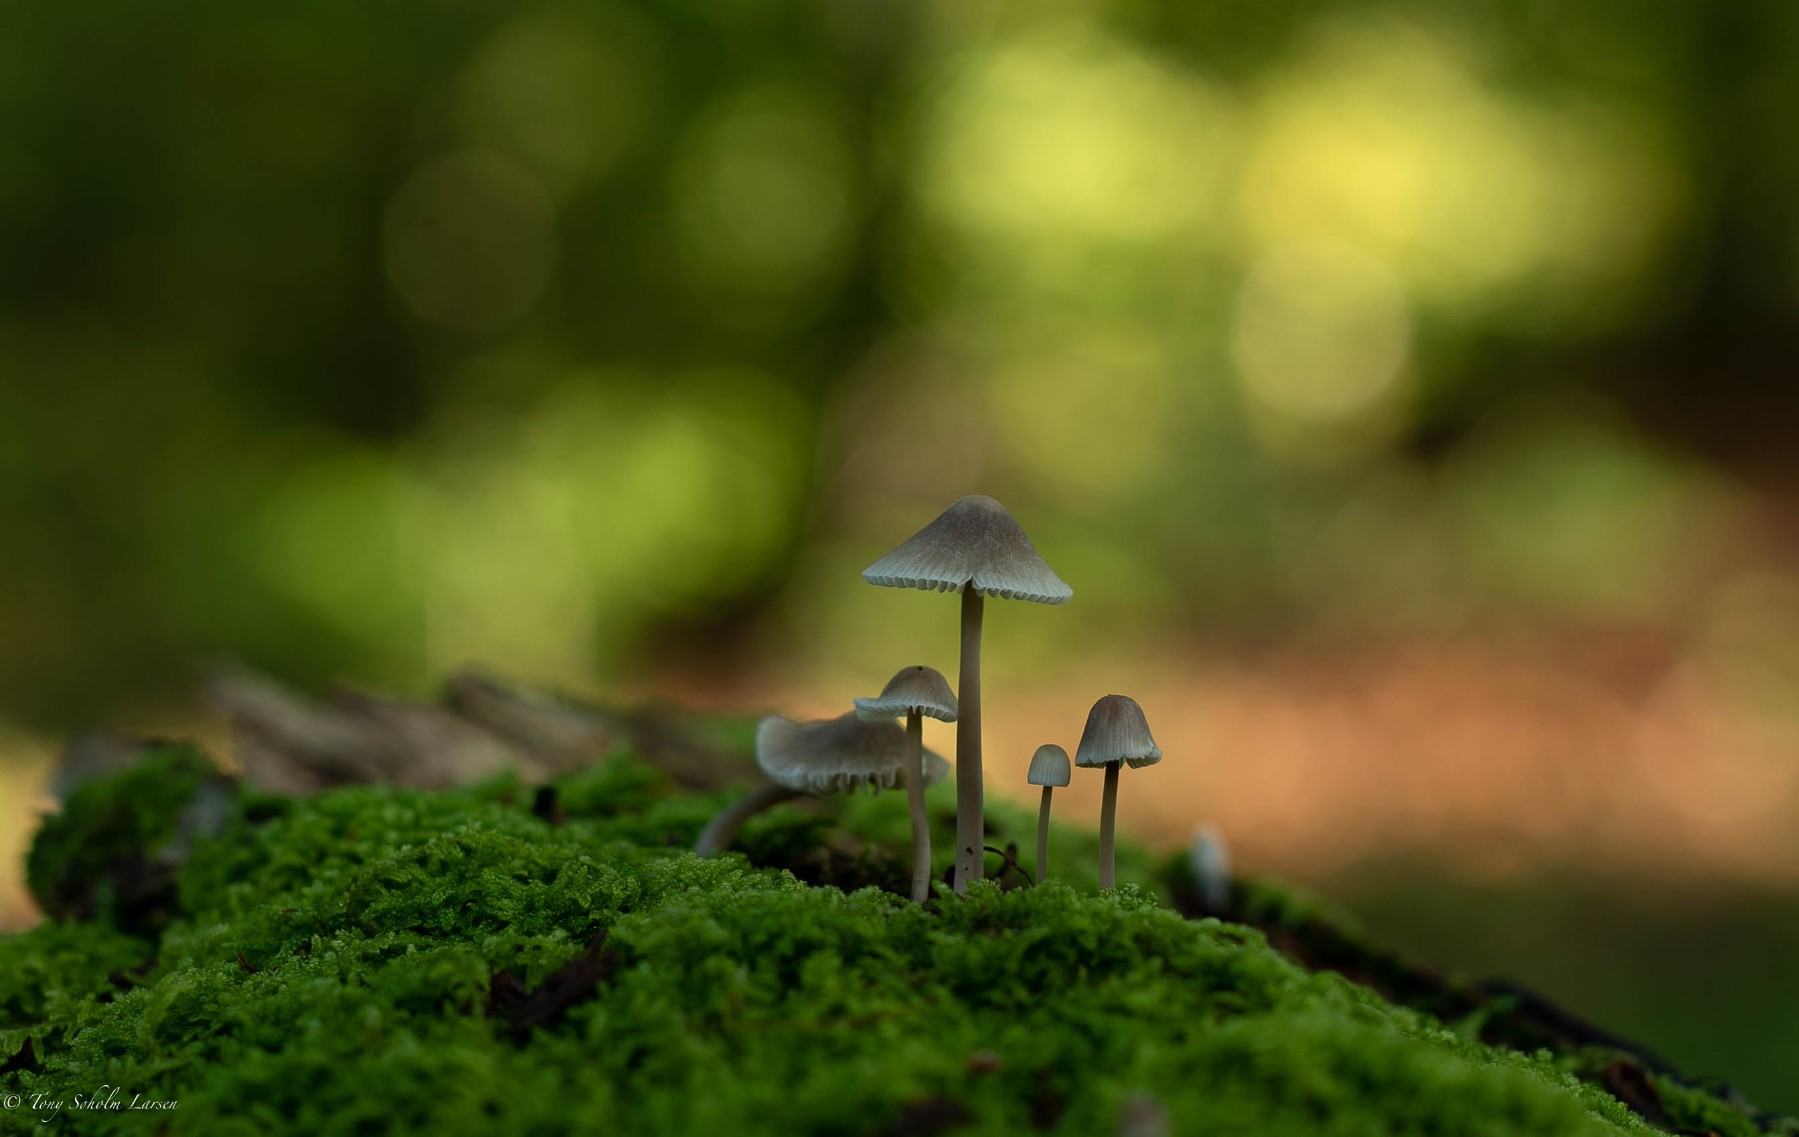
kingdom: Fungi
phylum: Basidiomycota
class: Agaricomycetes
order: Agaricales
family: Mycenaceae
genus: Mycena
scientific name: Mycena
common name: huesvamp
